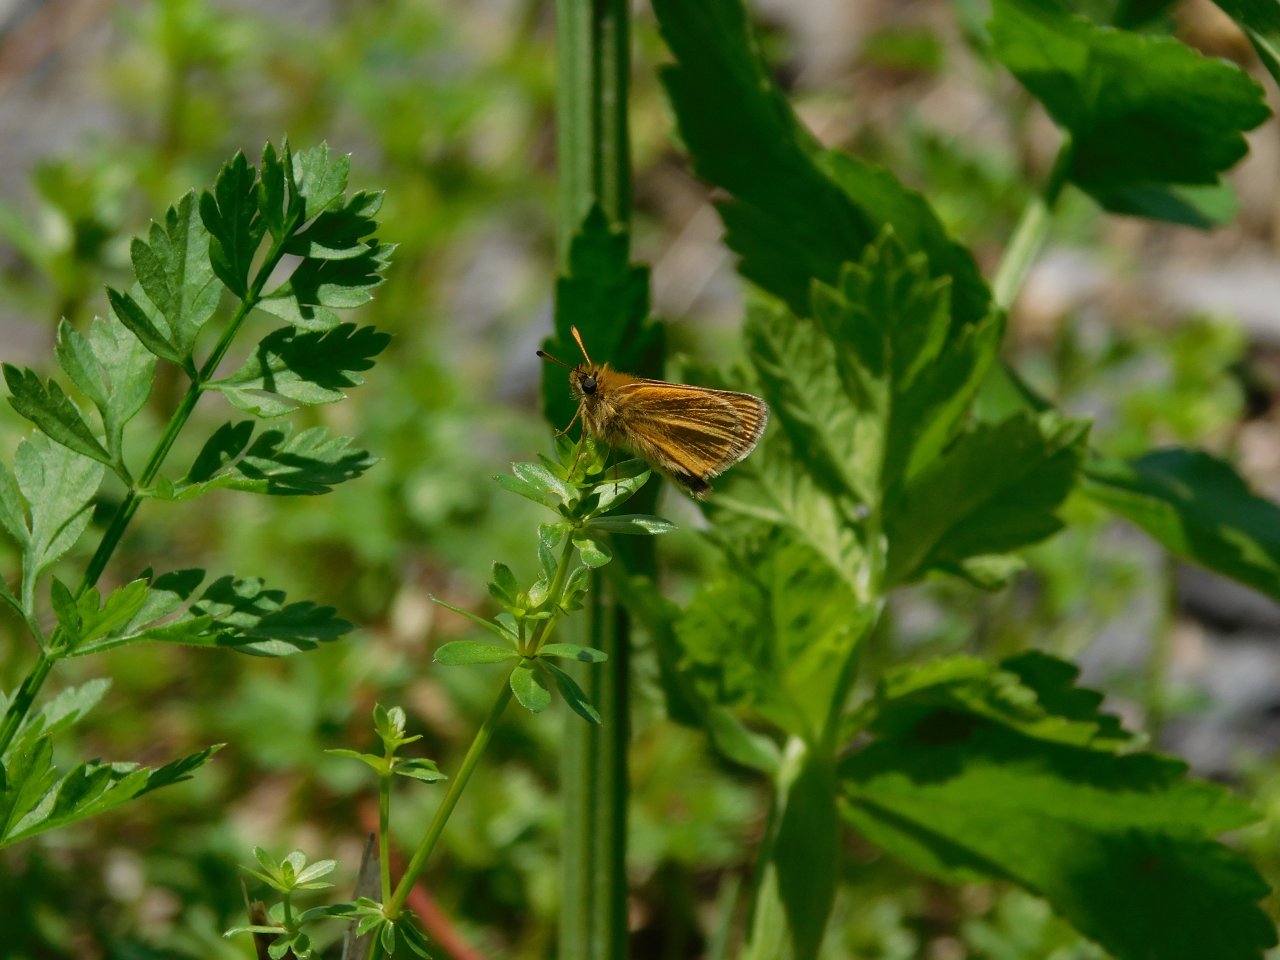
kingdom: Animalia
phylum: Arthropoda
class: Insecta
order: Lepidoptera
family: Hesperiidae
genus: Thymelicus
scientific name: Thymelicus lineola
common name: European Skipper
